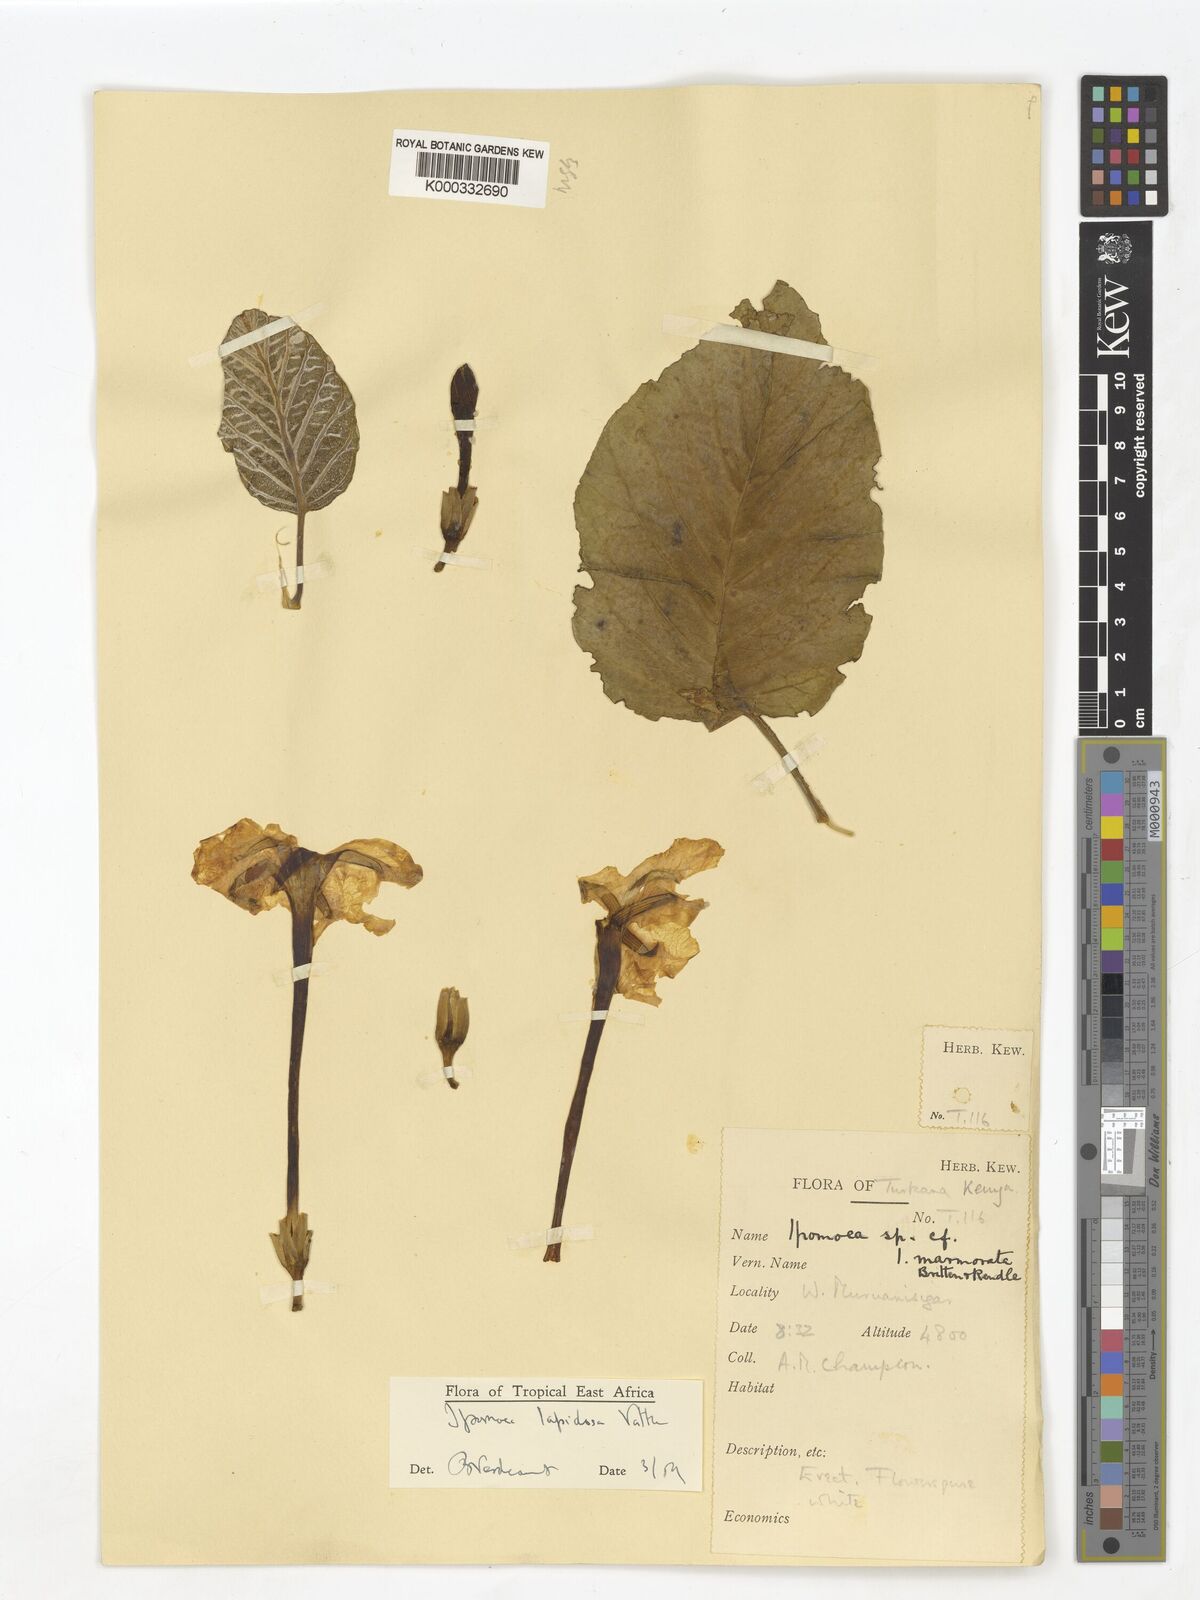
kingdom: Plantae
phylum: Tracheophyta
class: Magnoliopsida
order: Solanales
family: Convolvulaceae
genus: Ipomoea
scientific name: Ipomoea lapidosa
